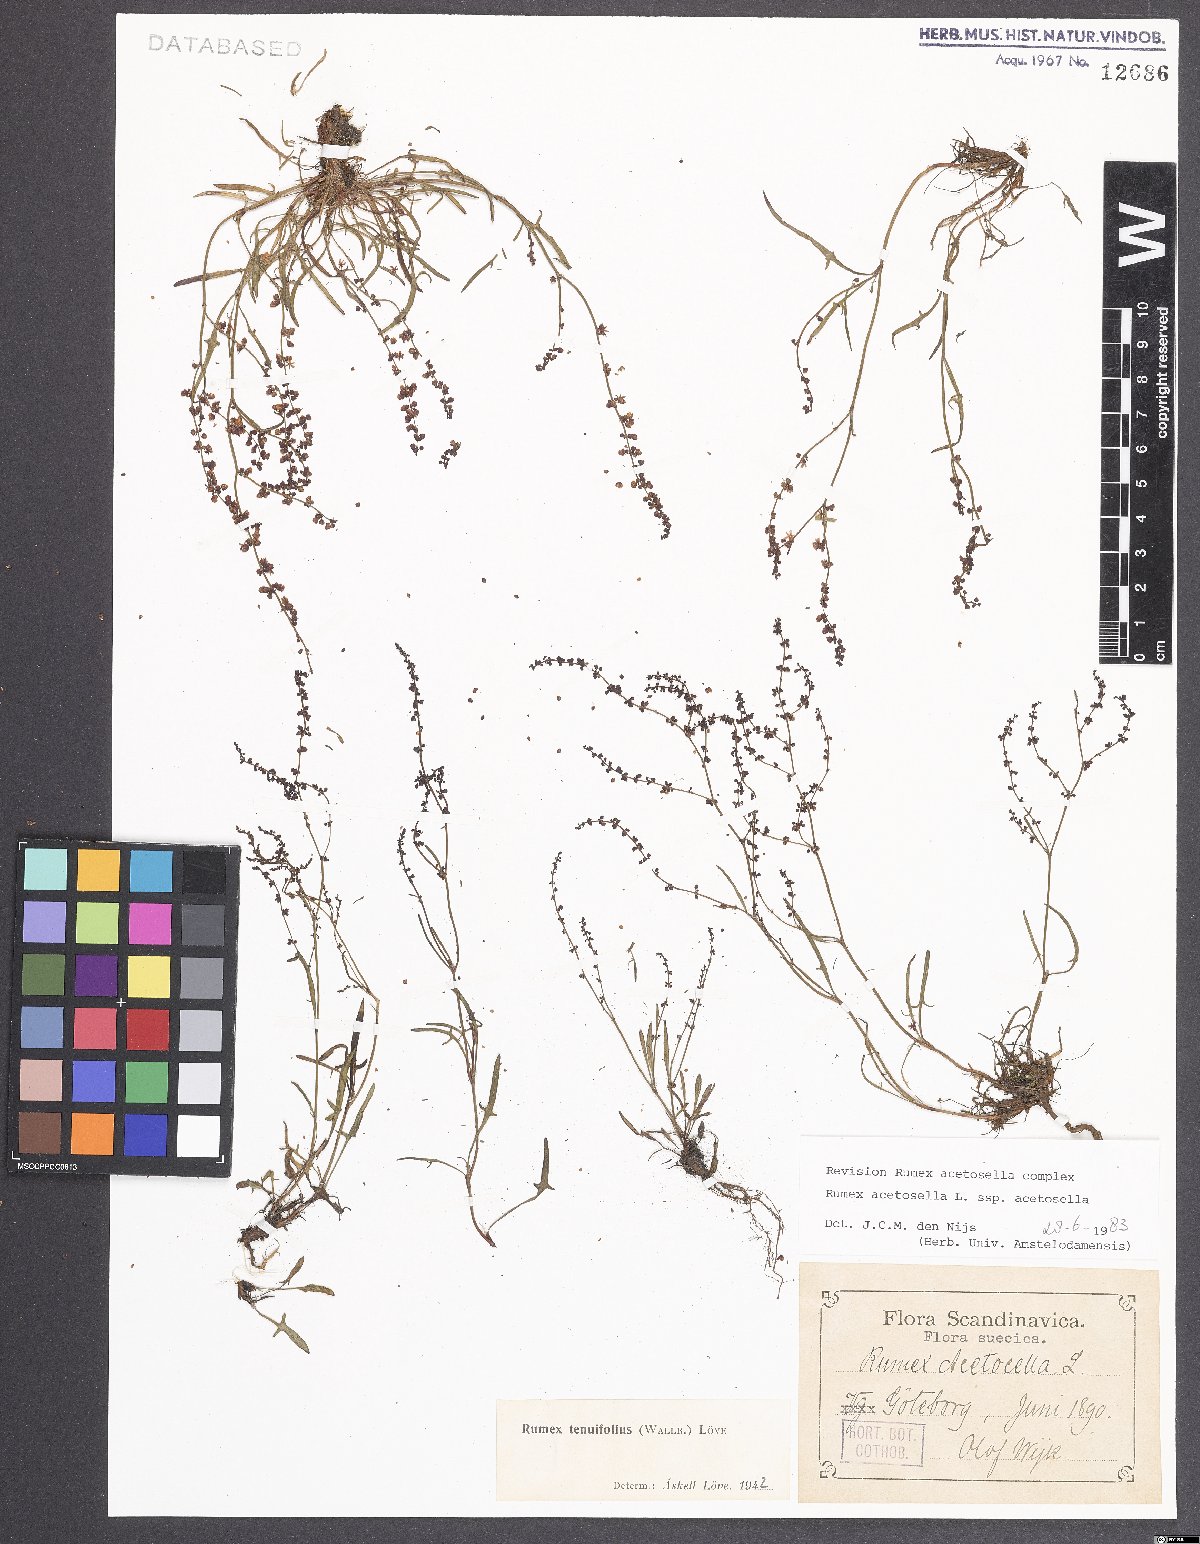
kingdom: Plantae
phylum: Tracheophyta
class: Magnoliopsida
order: Caryophyllales
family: Polygonaceae
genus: Rumex
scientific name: Rumex acetosella
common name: Common sheep sorrel
